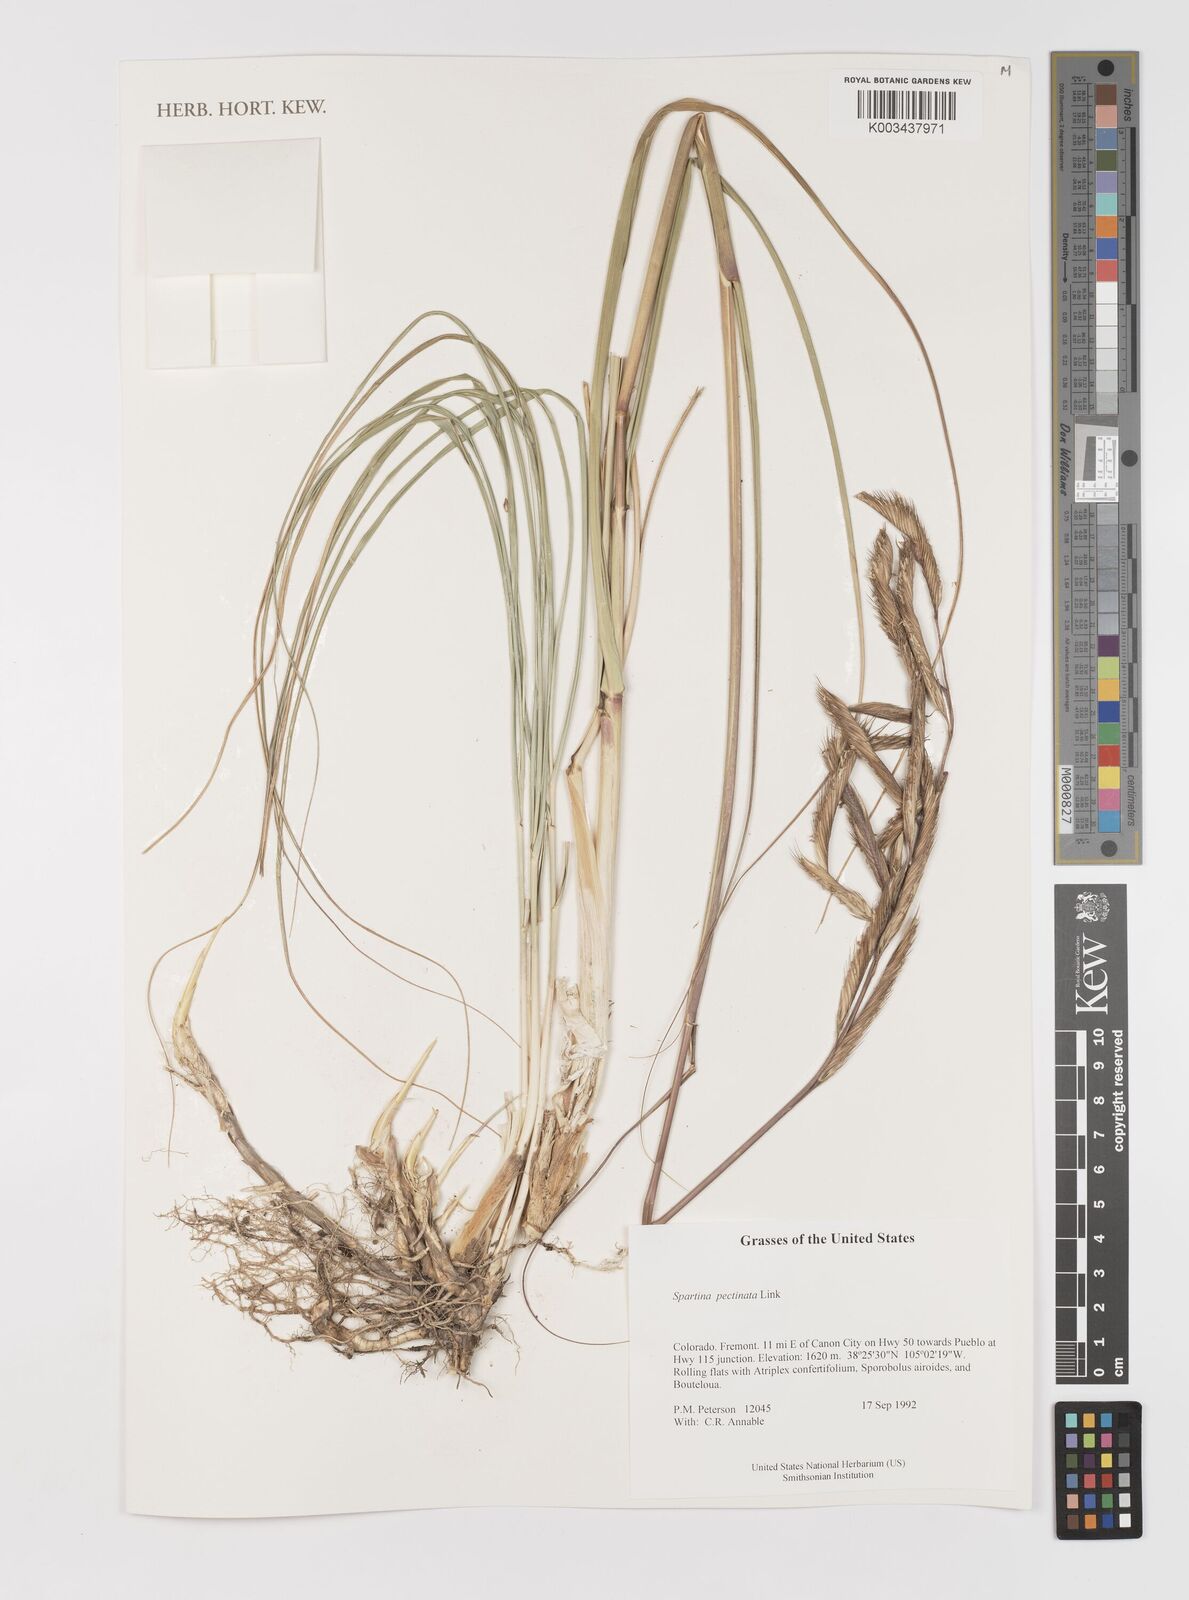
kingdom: Plantae
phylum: Tracheophyta
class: Liliopsida
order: Poales
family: Poaceae
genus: Sporobolus
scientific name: Sporobolus michauxianus
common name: Freshwater cordgrass
